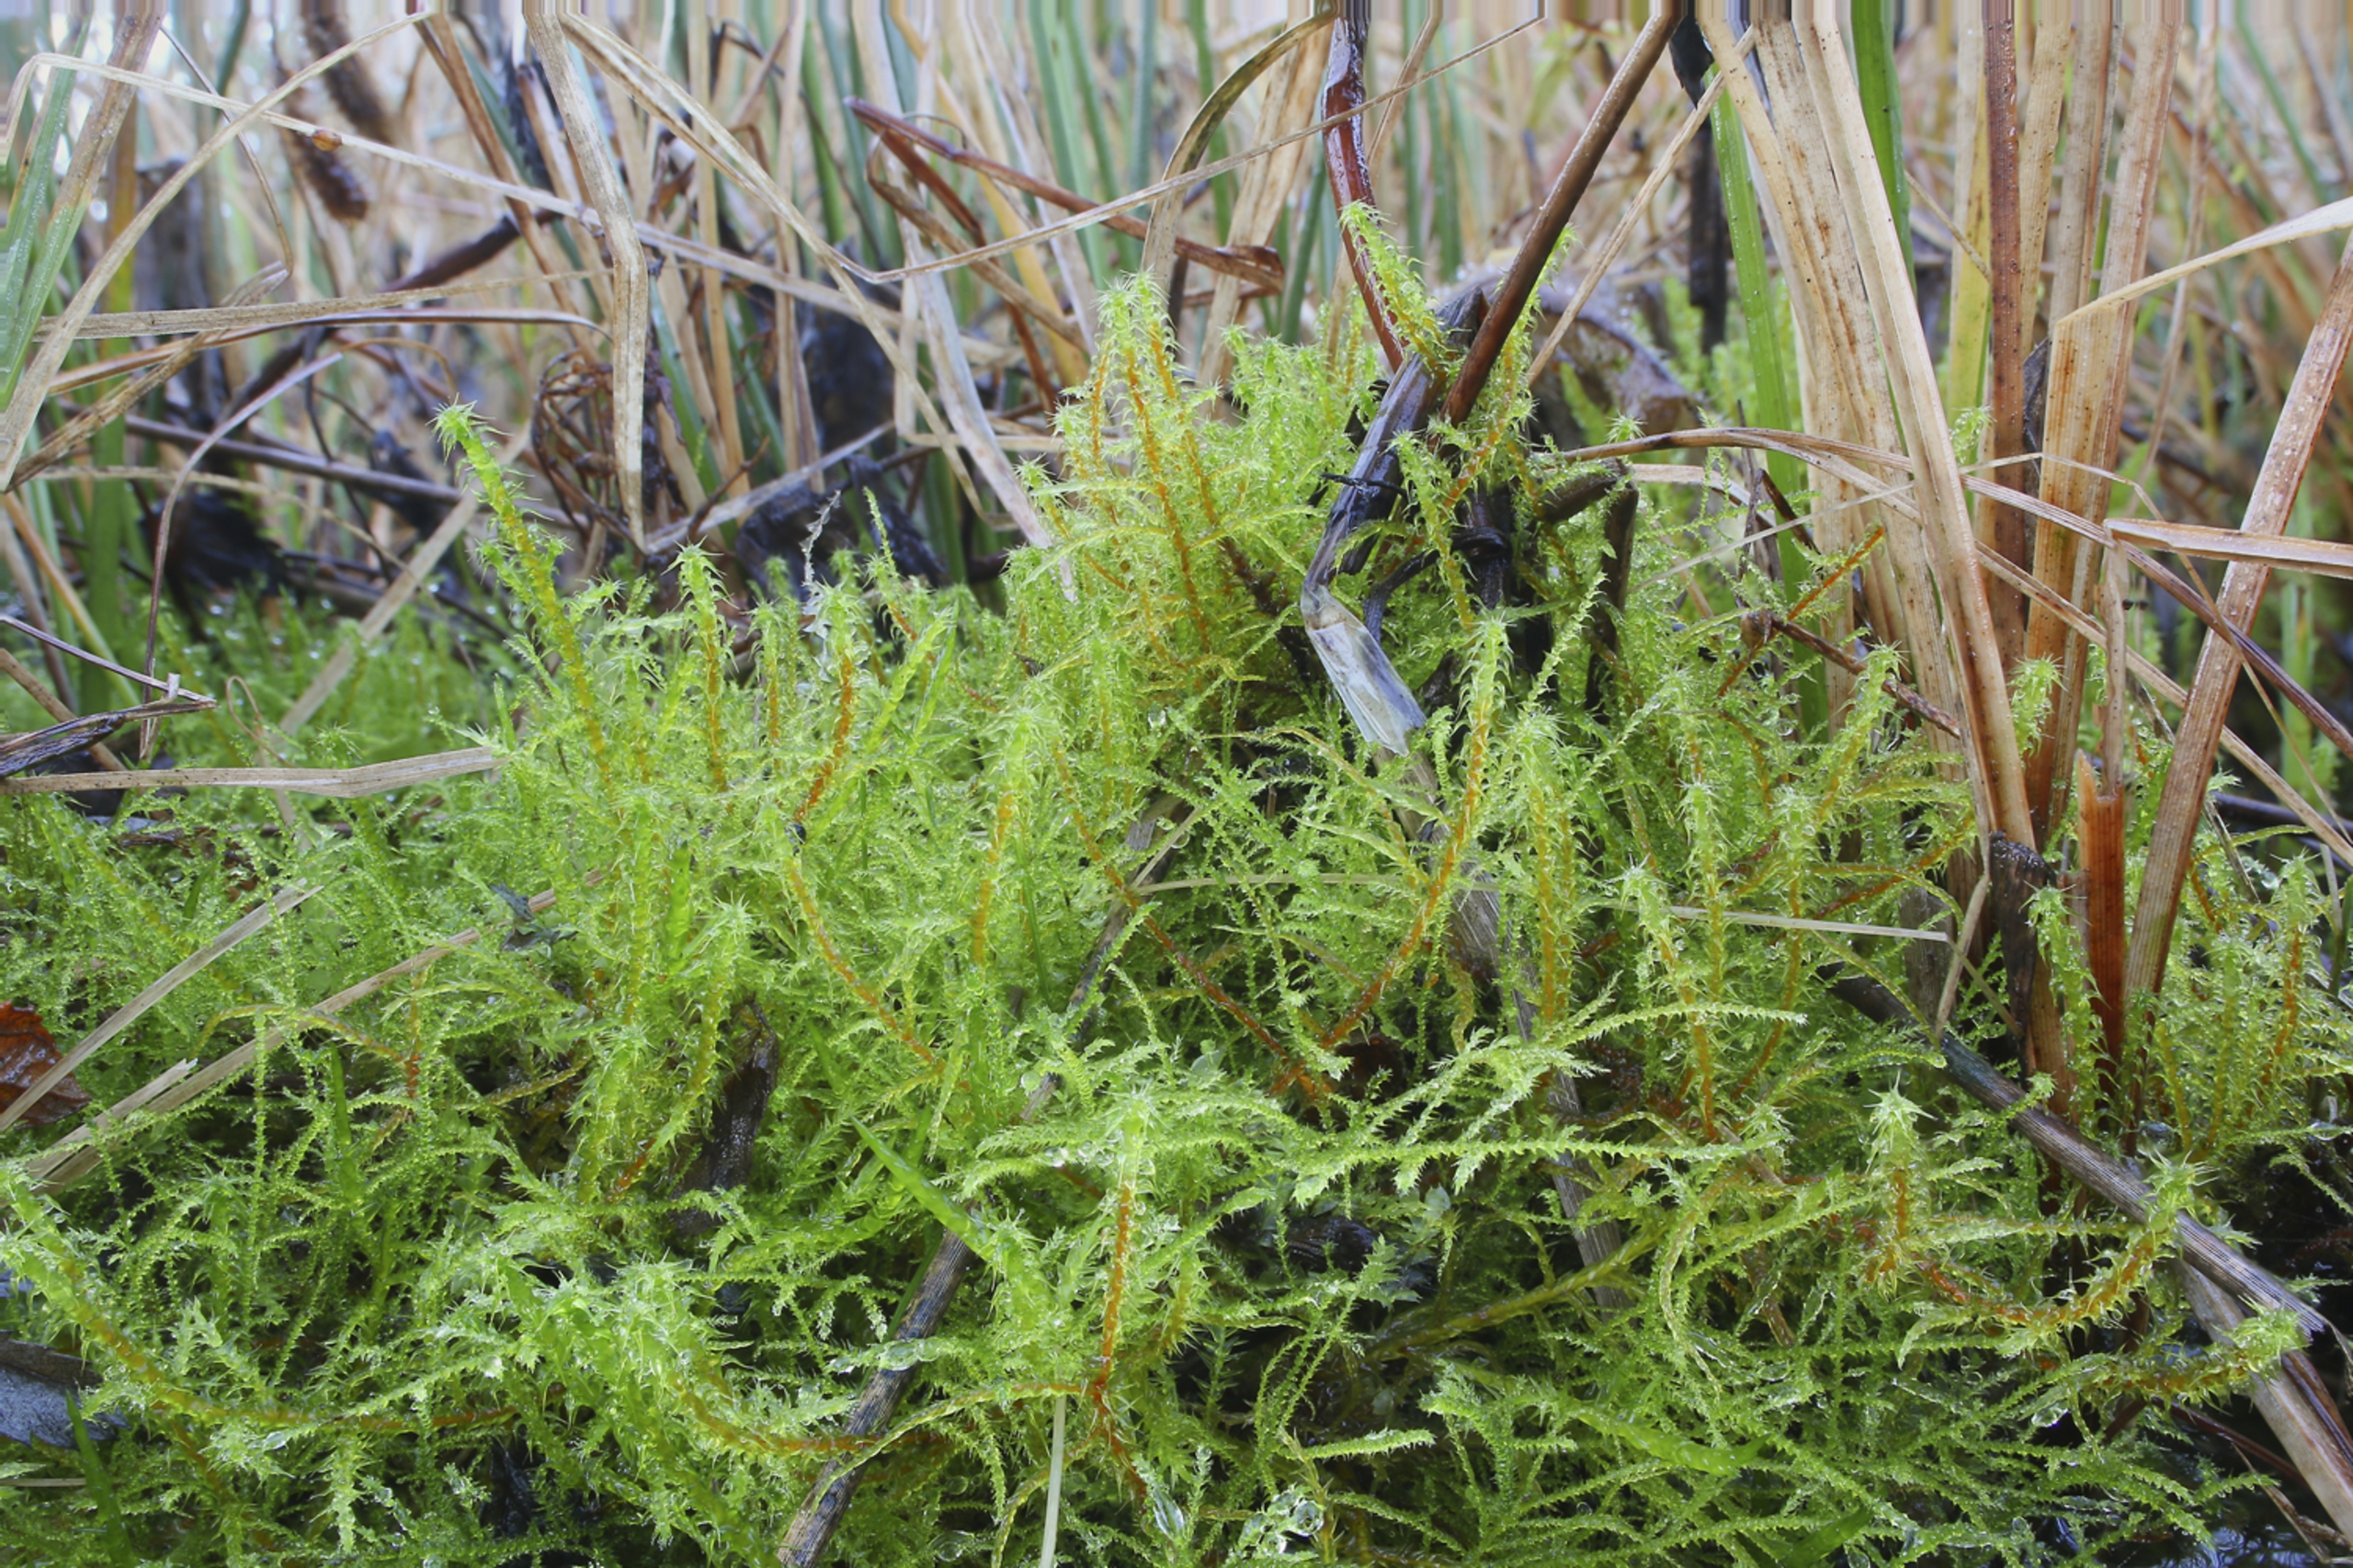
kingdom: Plantae
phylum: Bryophyta
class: Bryopsida
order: Hypnales
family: Brachytheciaceae
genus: Kindbergia
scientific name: Kindbergia praelonga
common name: Forskelligbladet vortetand
